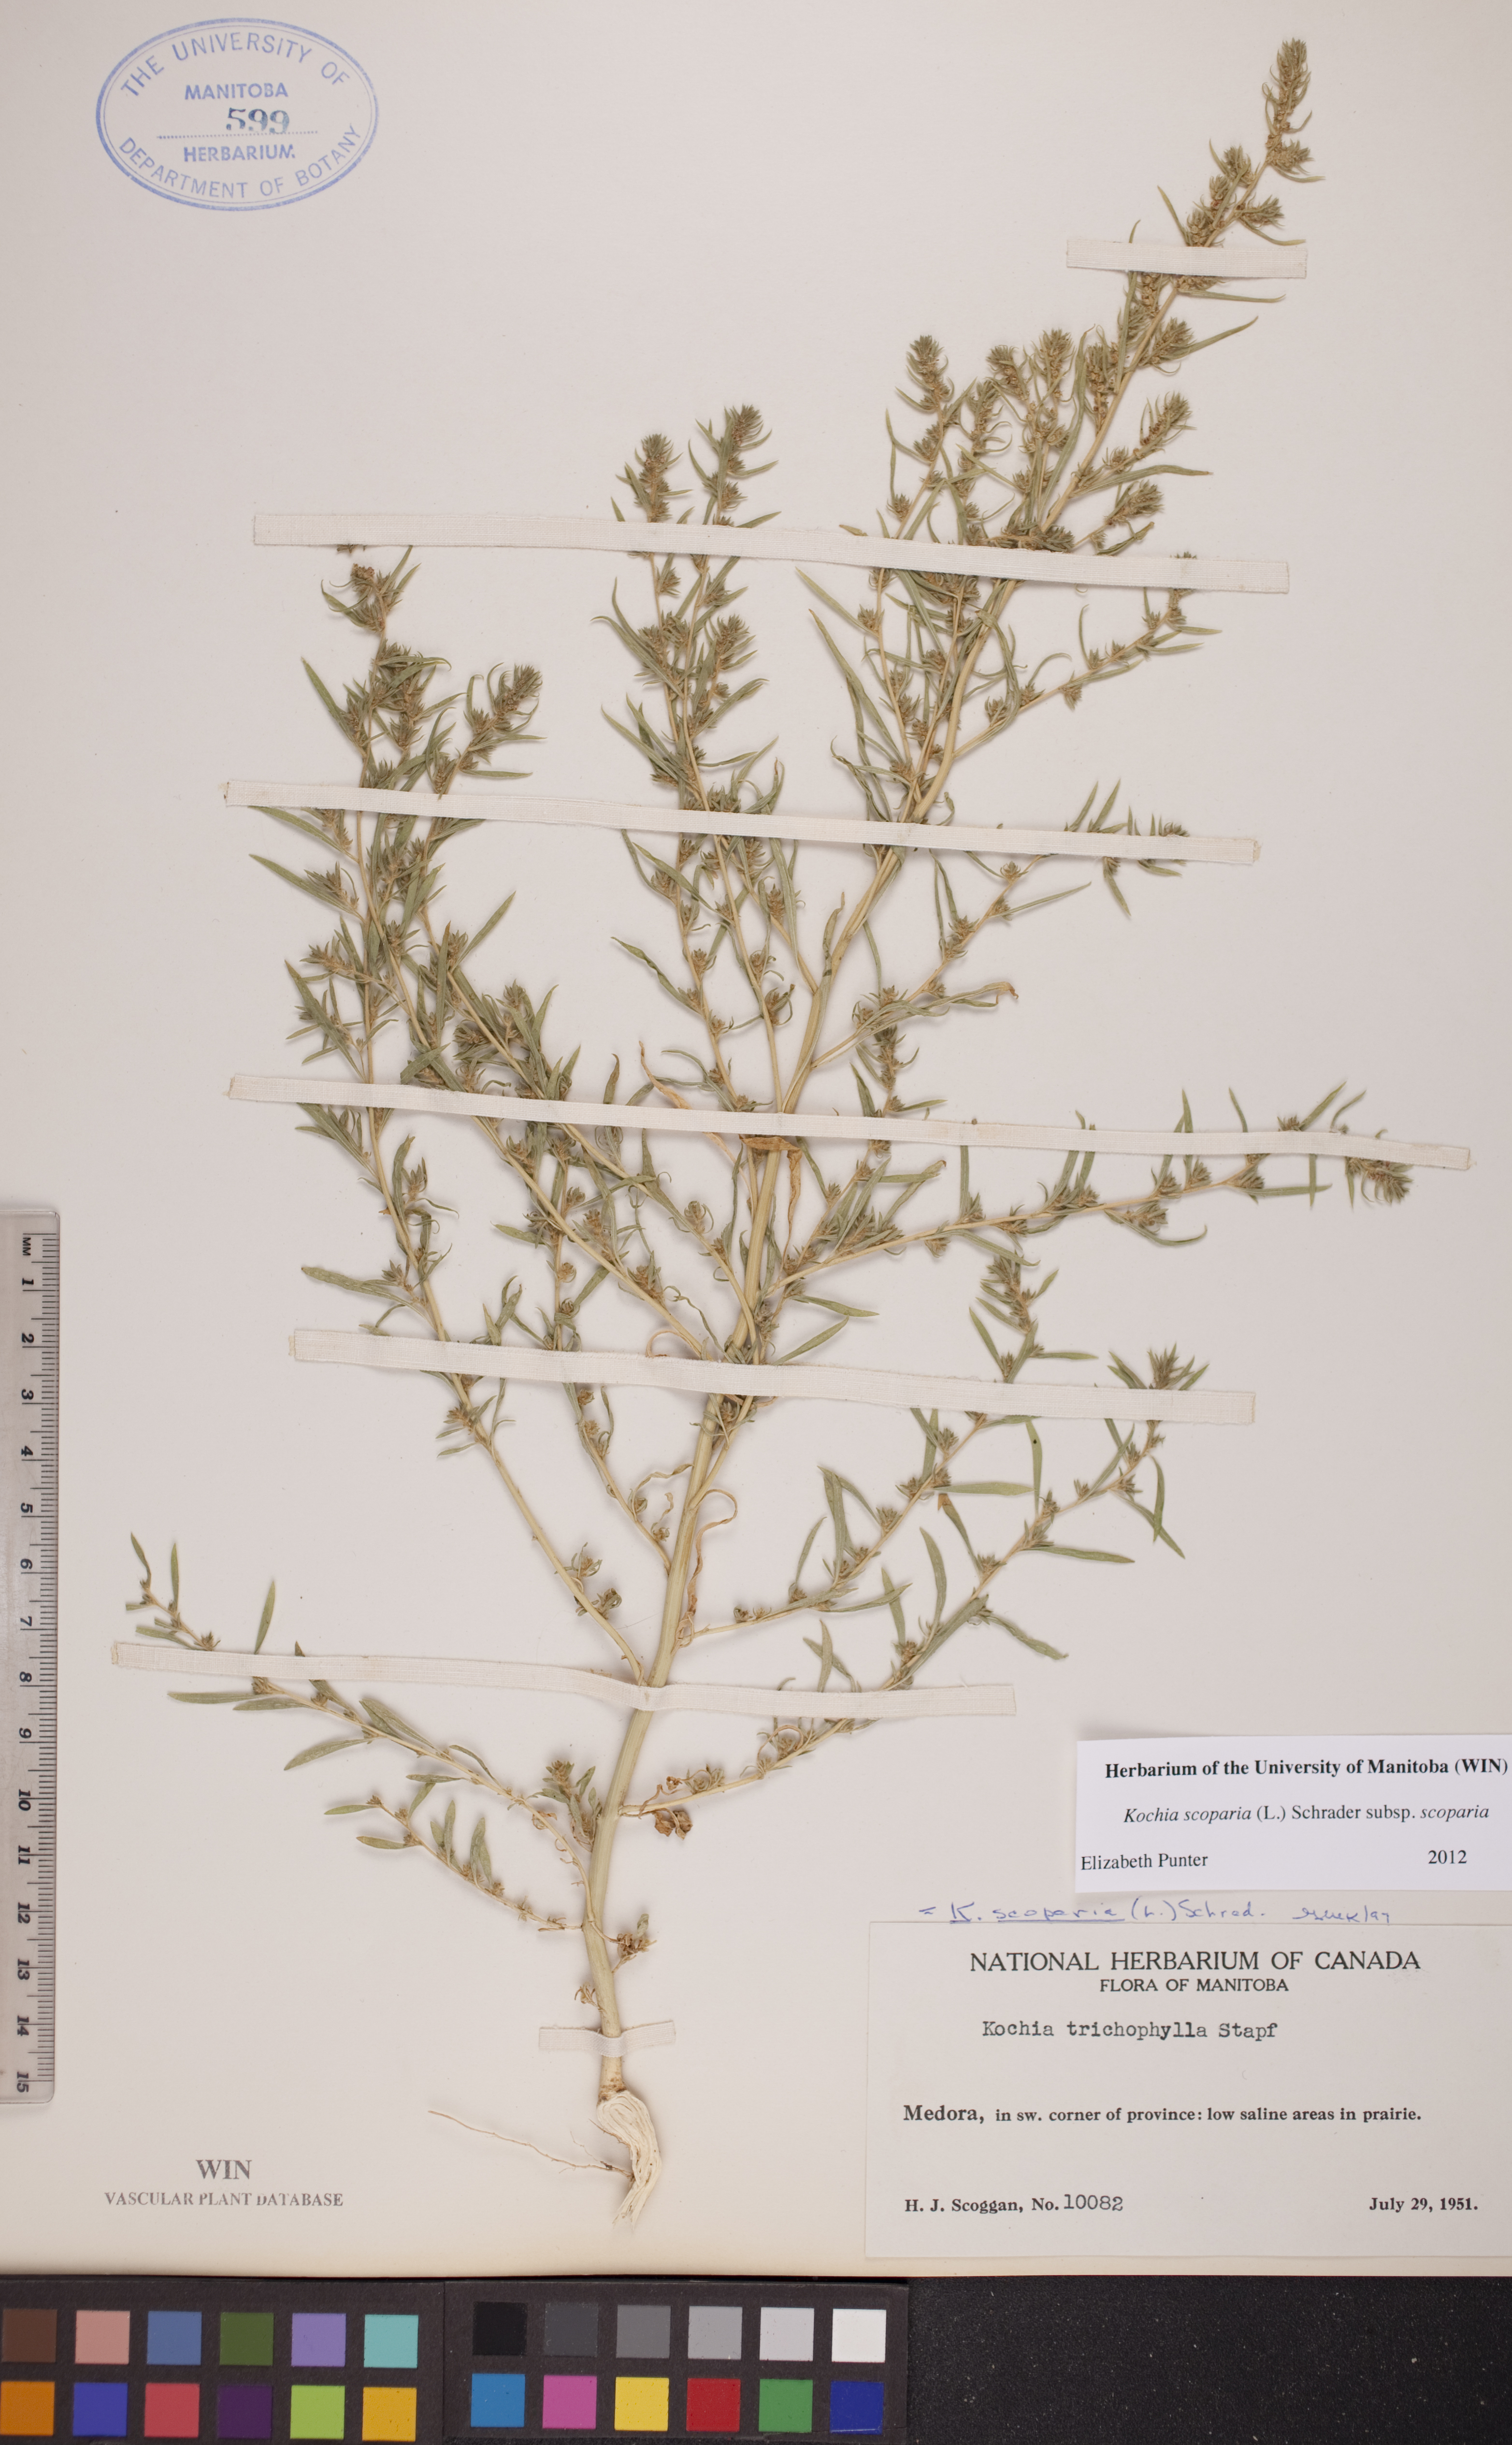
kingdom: Plantae
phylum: Tracheophyta
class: Magnoliopsida
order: Caryophyllales
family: Amaranthaceae
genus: Bassia
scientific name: Bassia scoparia
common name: Belvedere
